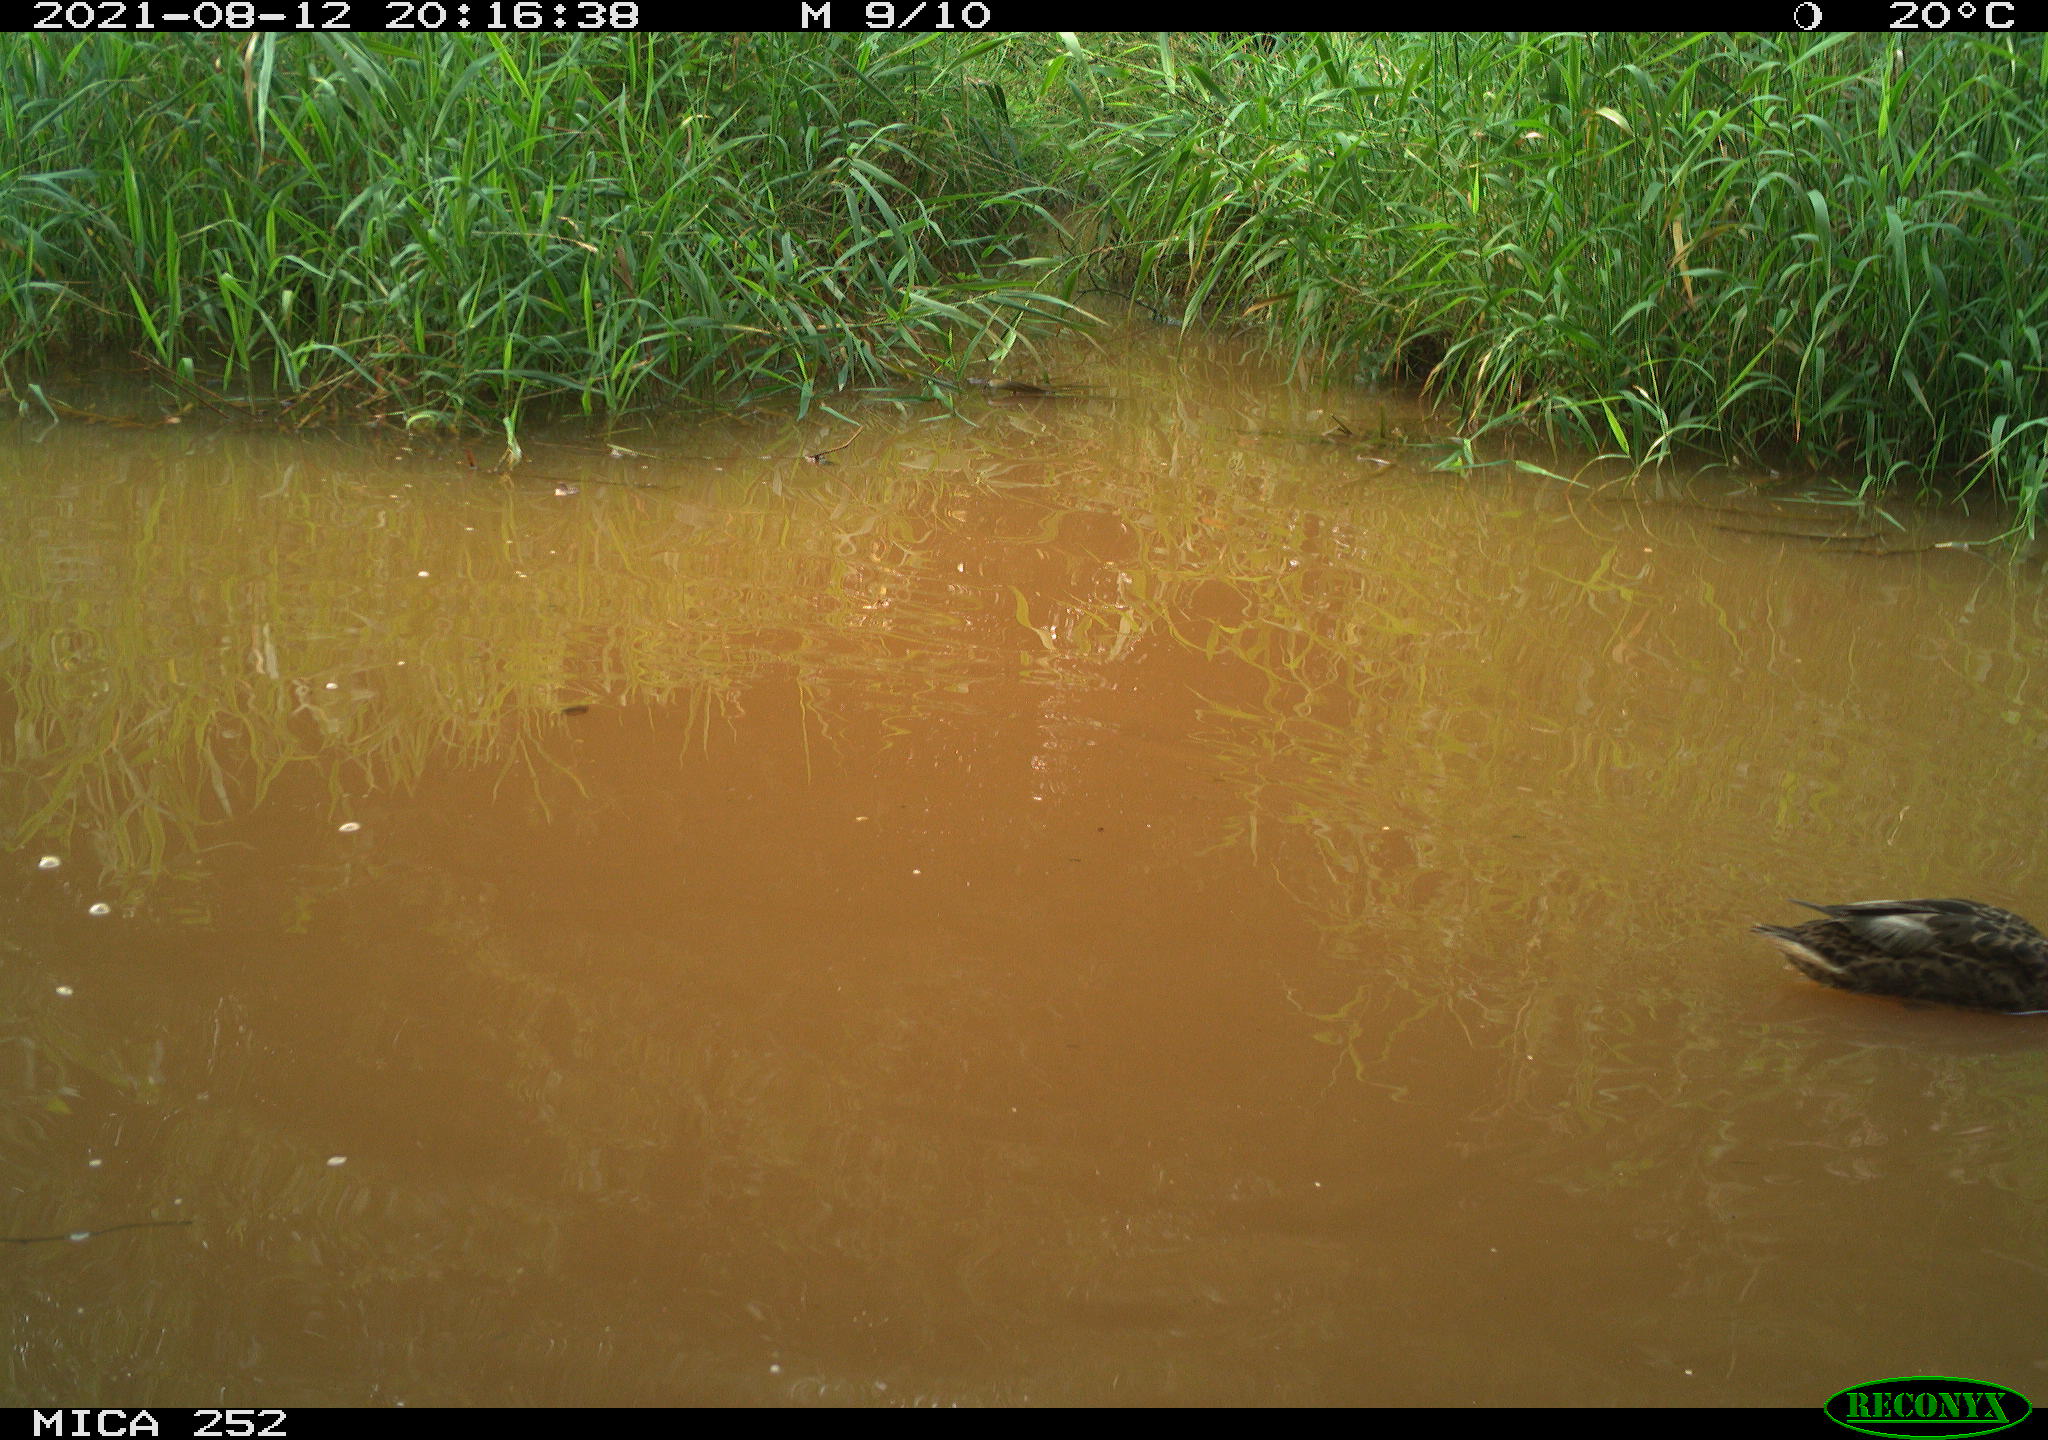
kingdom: Animalia
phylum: Chordata
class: Aves
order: Anseriformes
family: Anatidae
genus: Anas
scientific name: Anas
